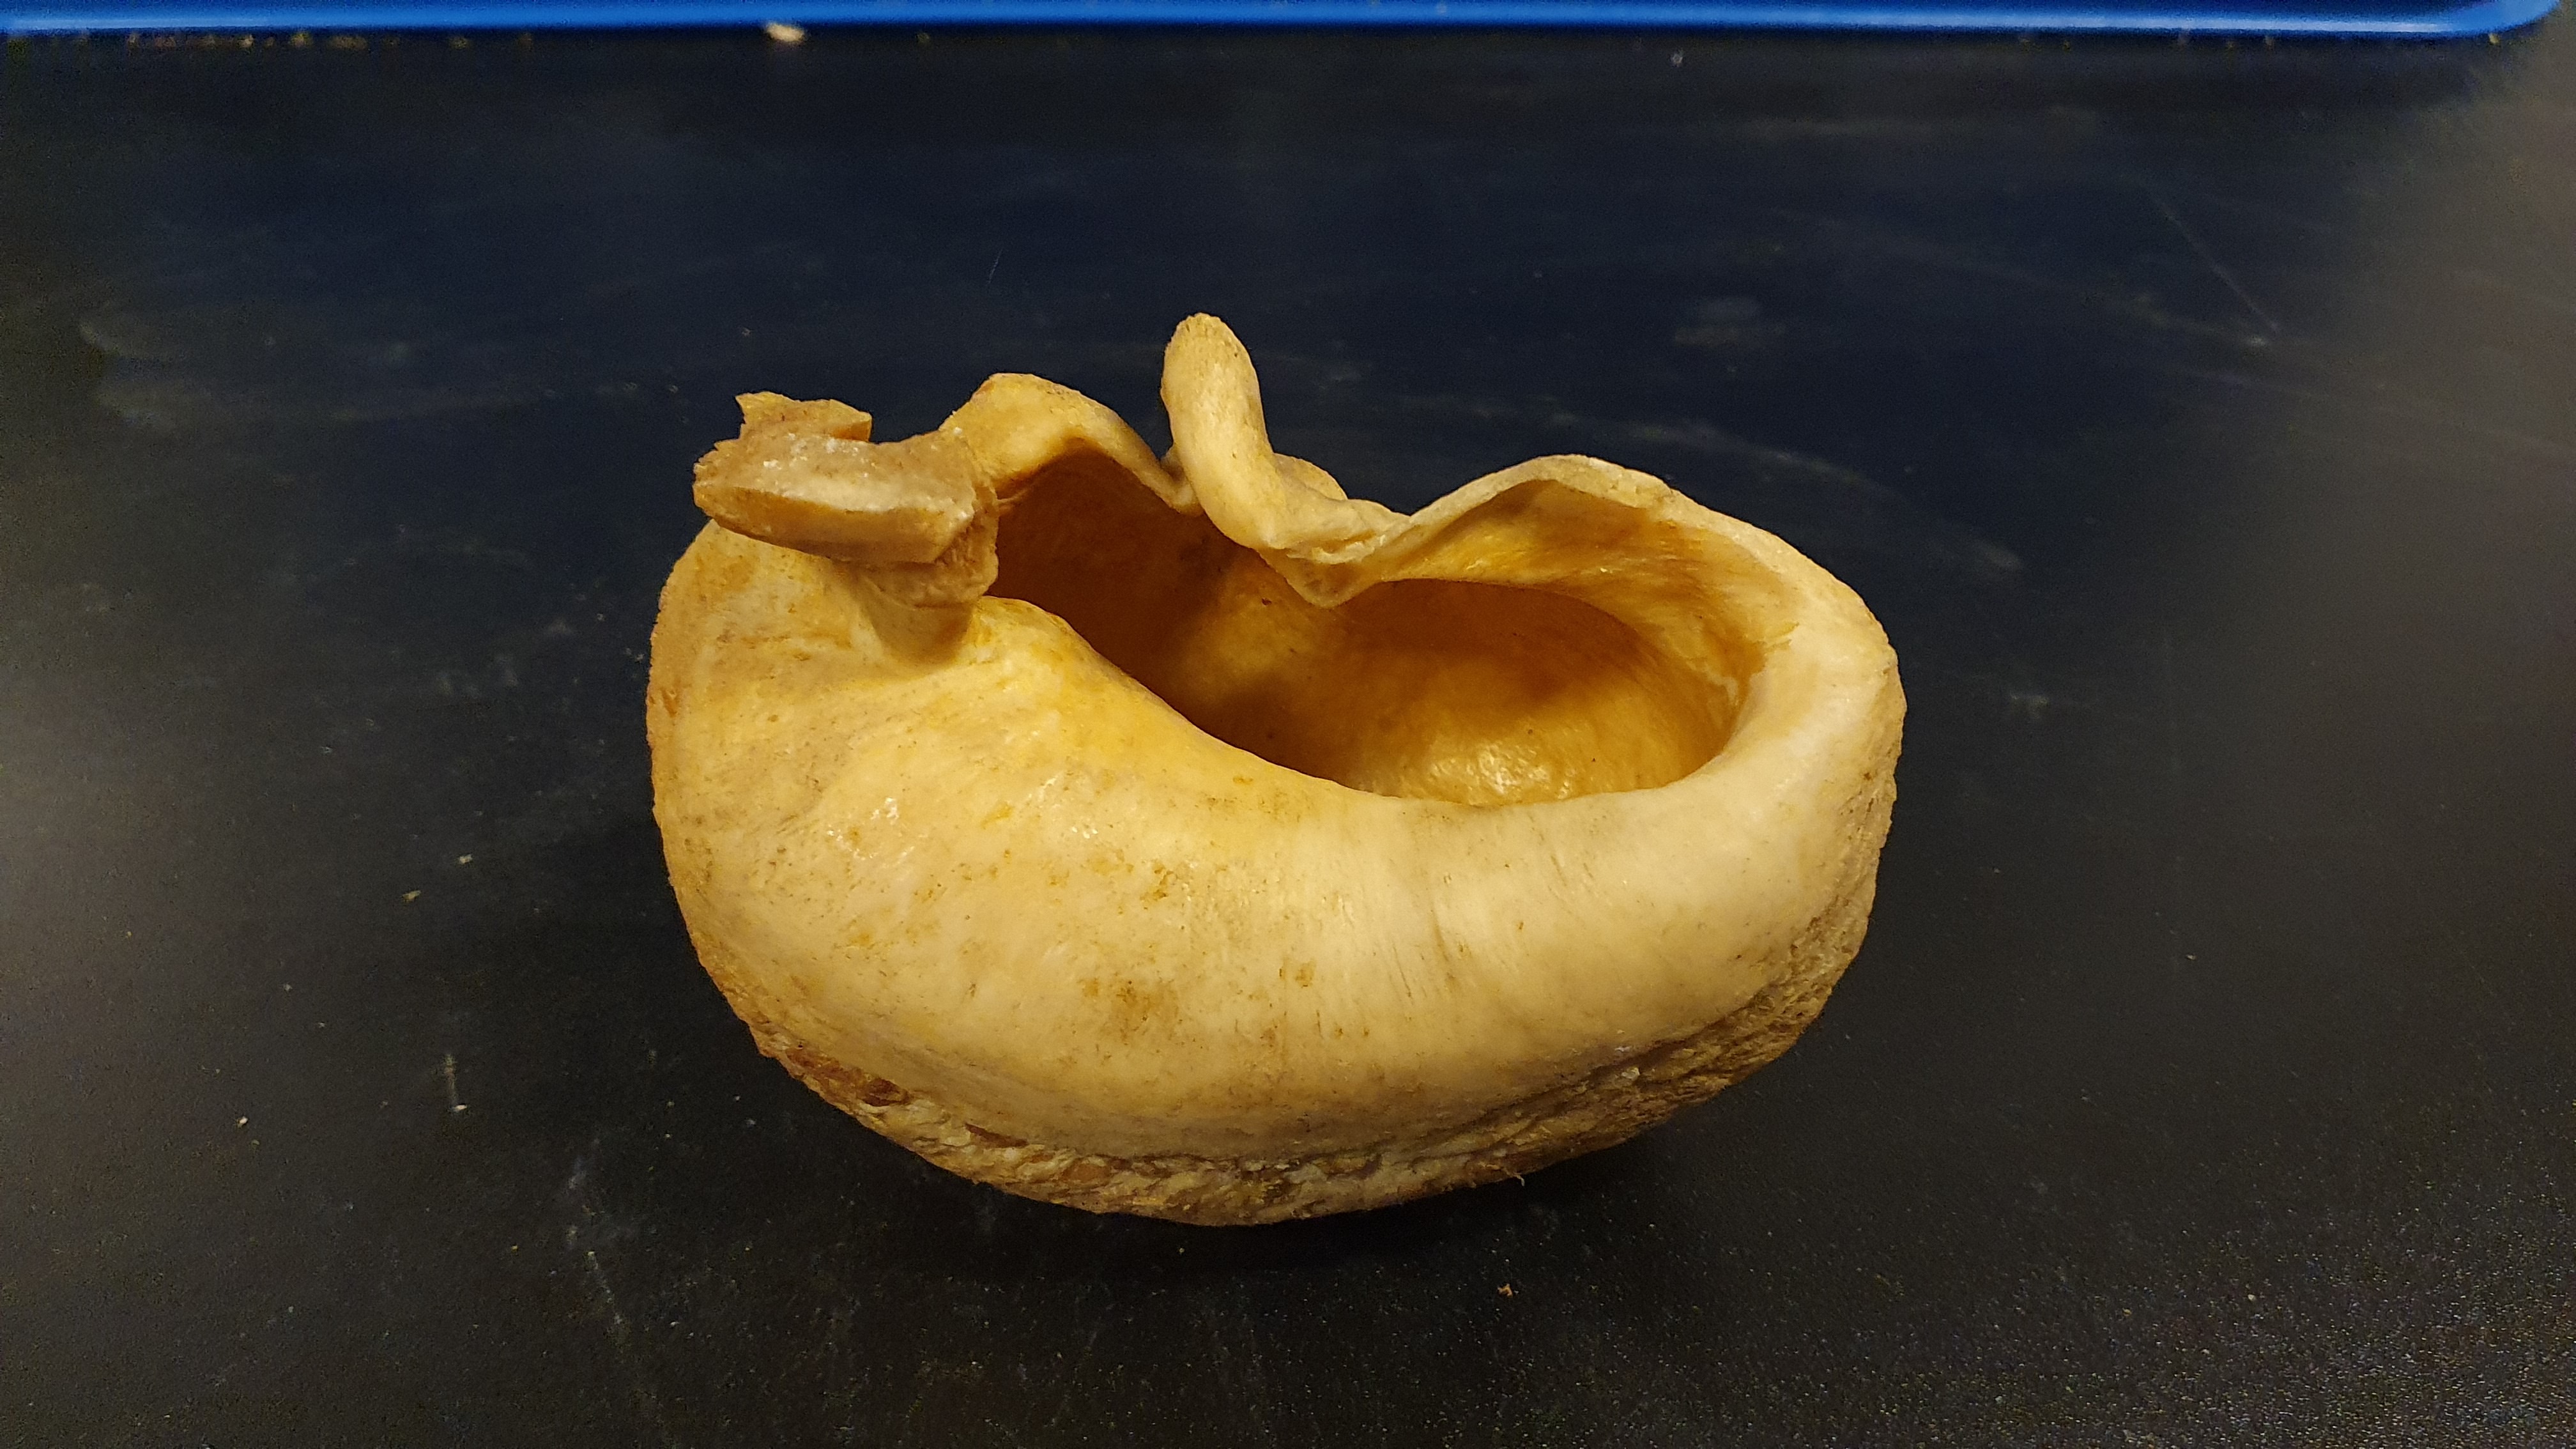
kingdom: Animalia
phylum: Chordata
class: Mammalia
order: Cetacea
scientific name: Cetacea
